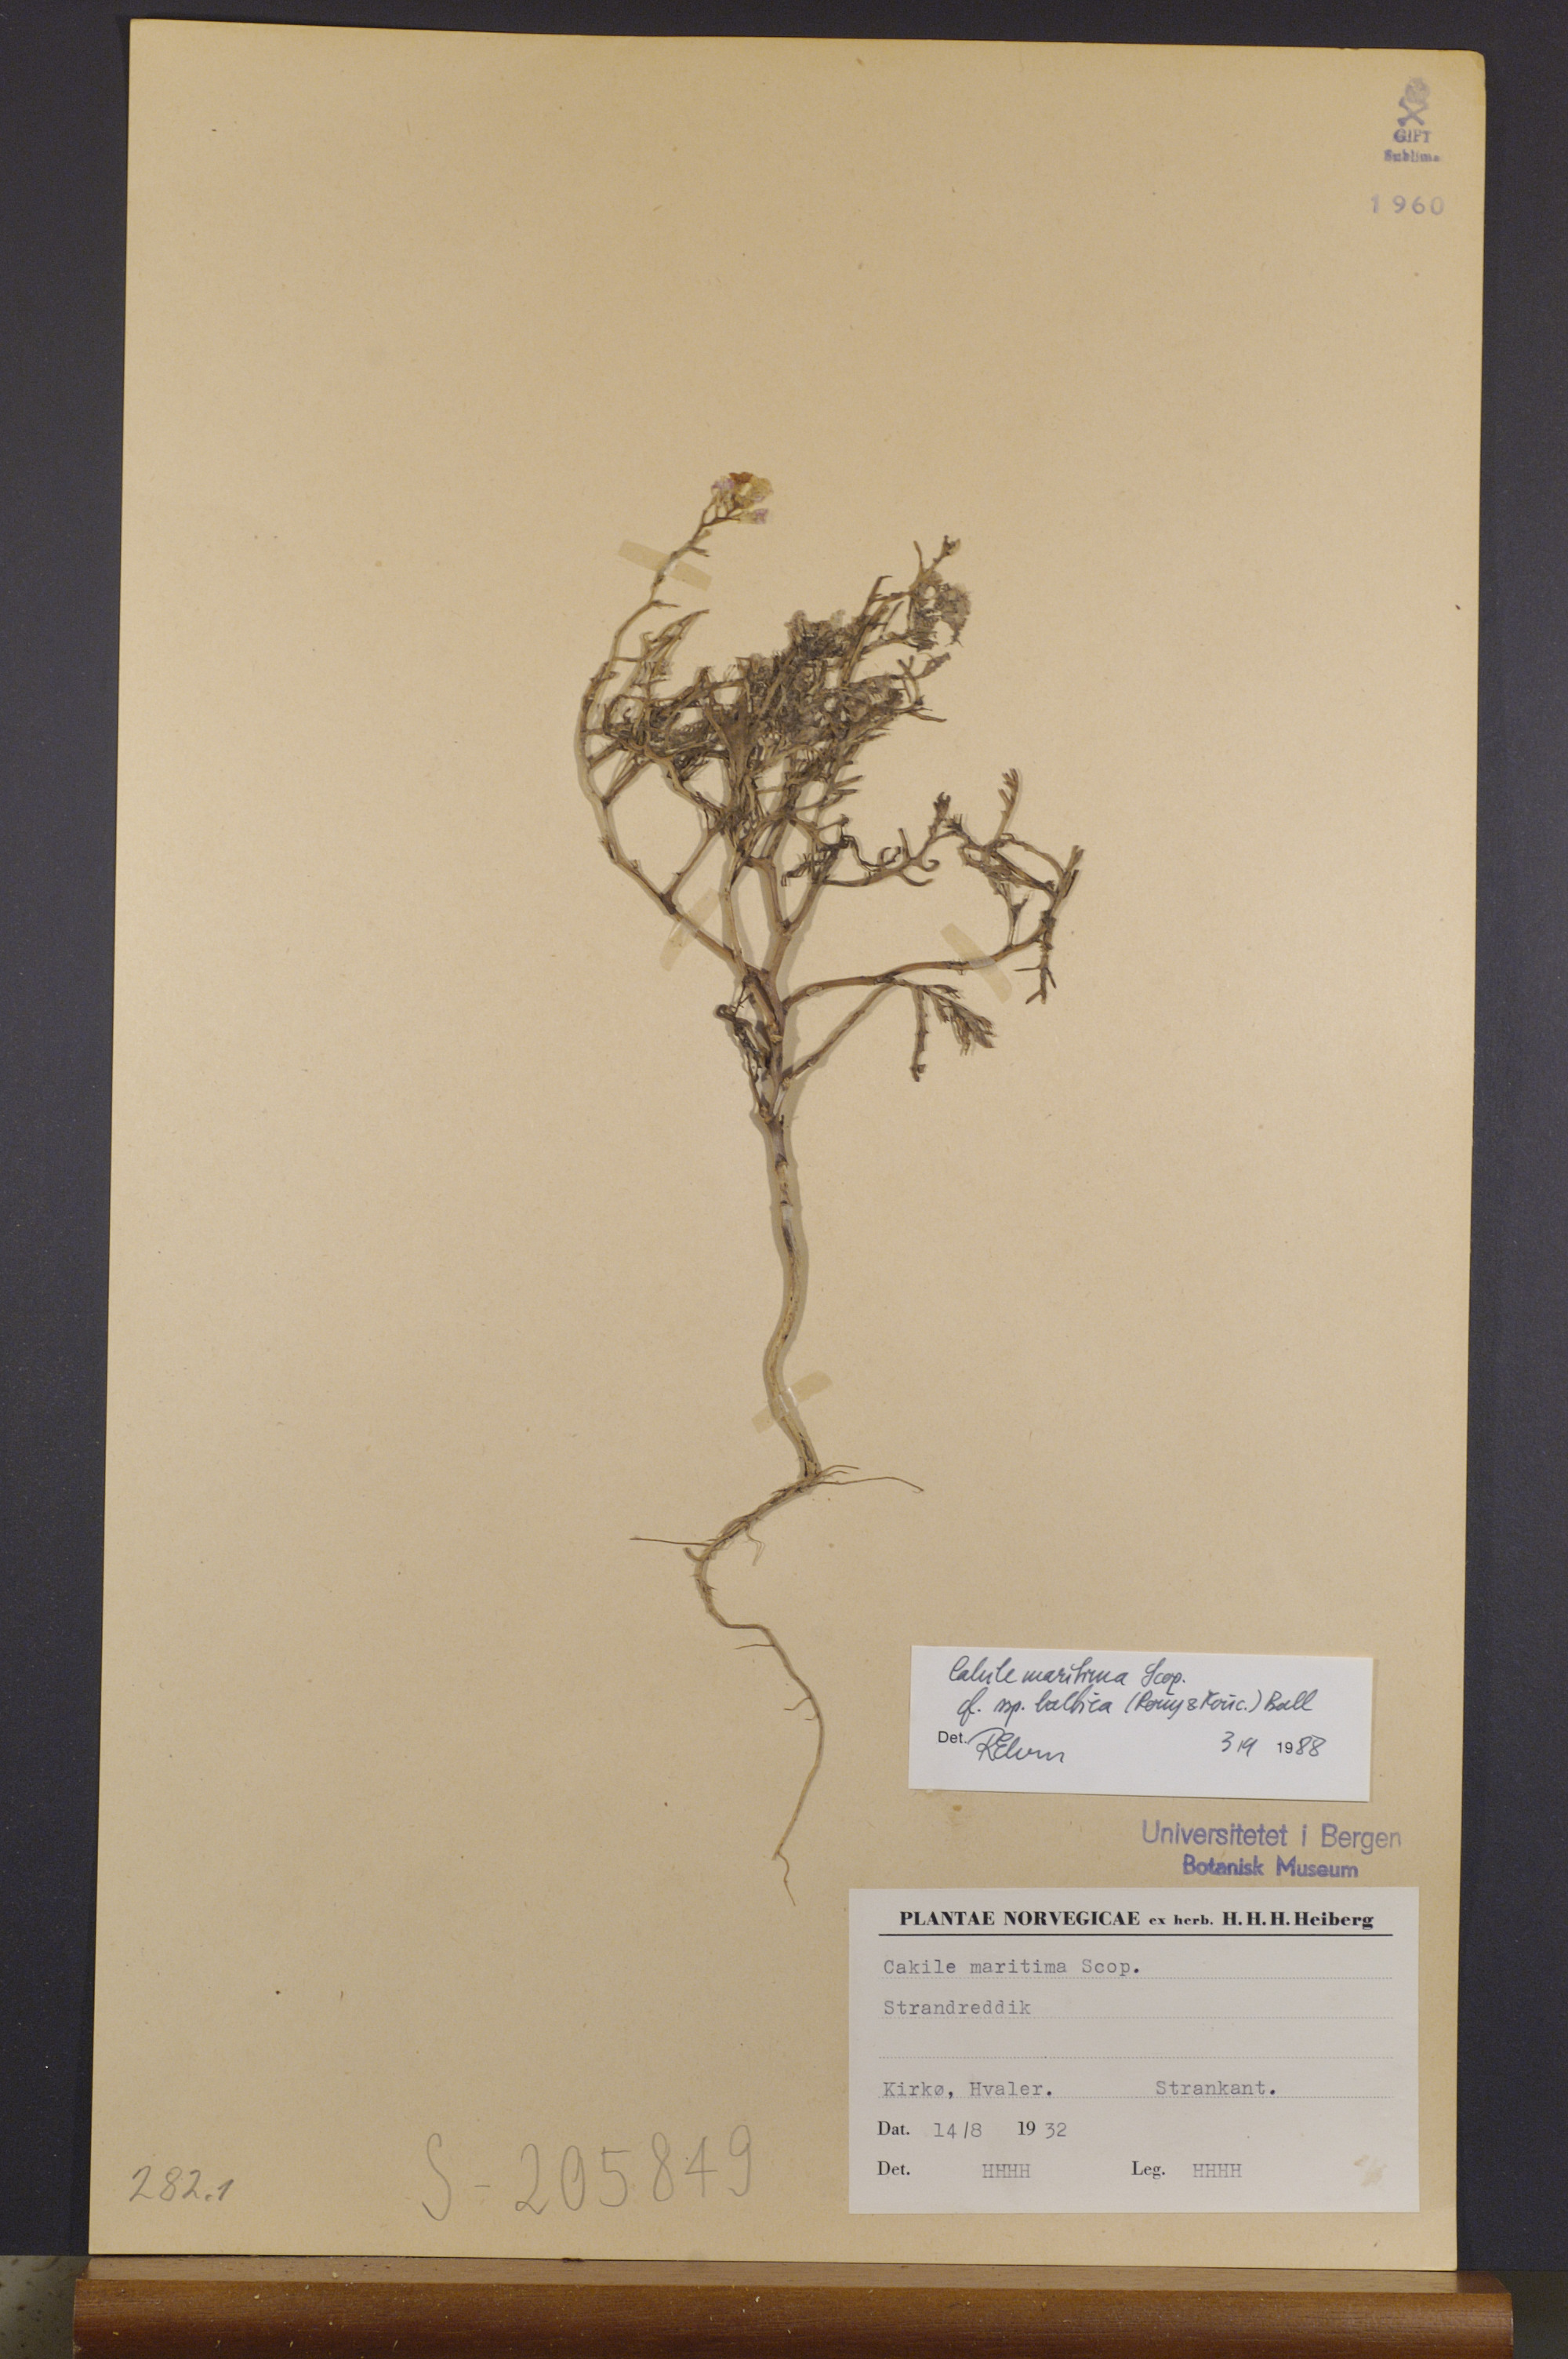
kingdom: Plantae
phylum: Tracheophyta
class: Magnoliopsida
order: Brassicales
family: Brassicaceae
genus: Cakile
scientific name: Cakile maritima
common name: Sea rocket
